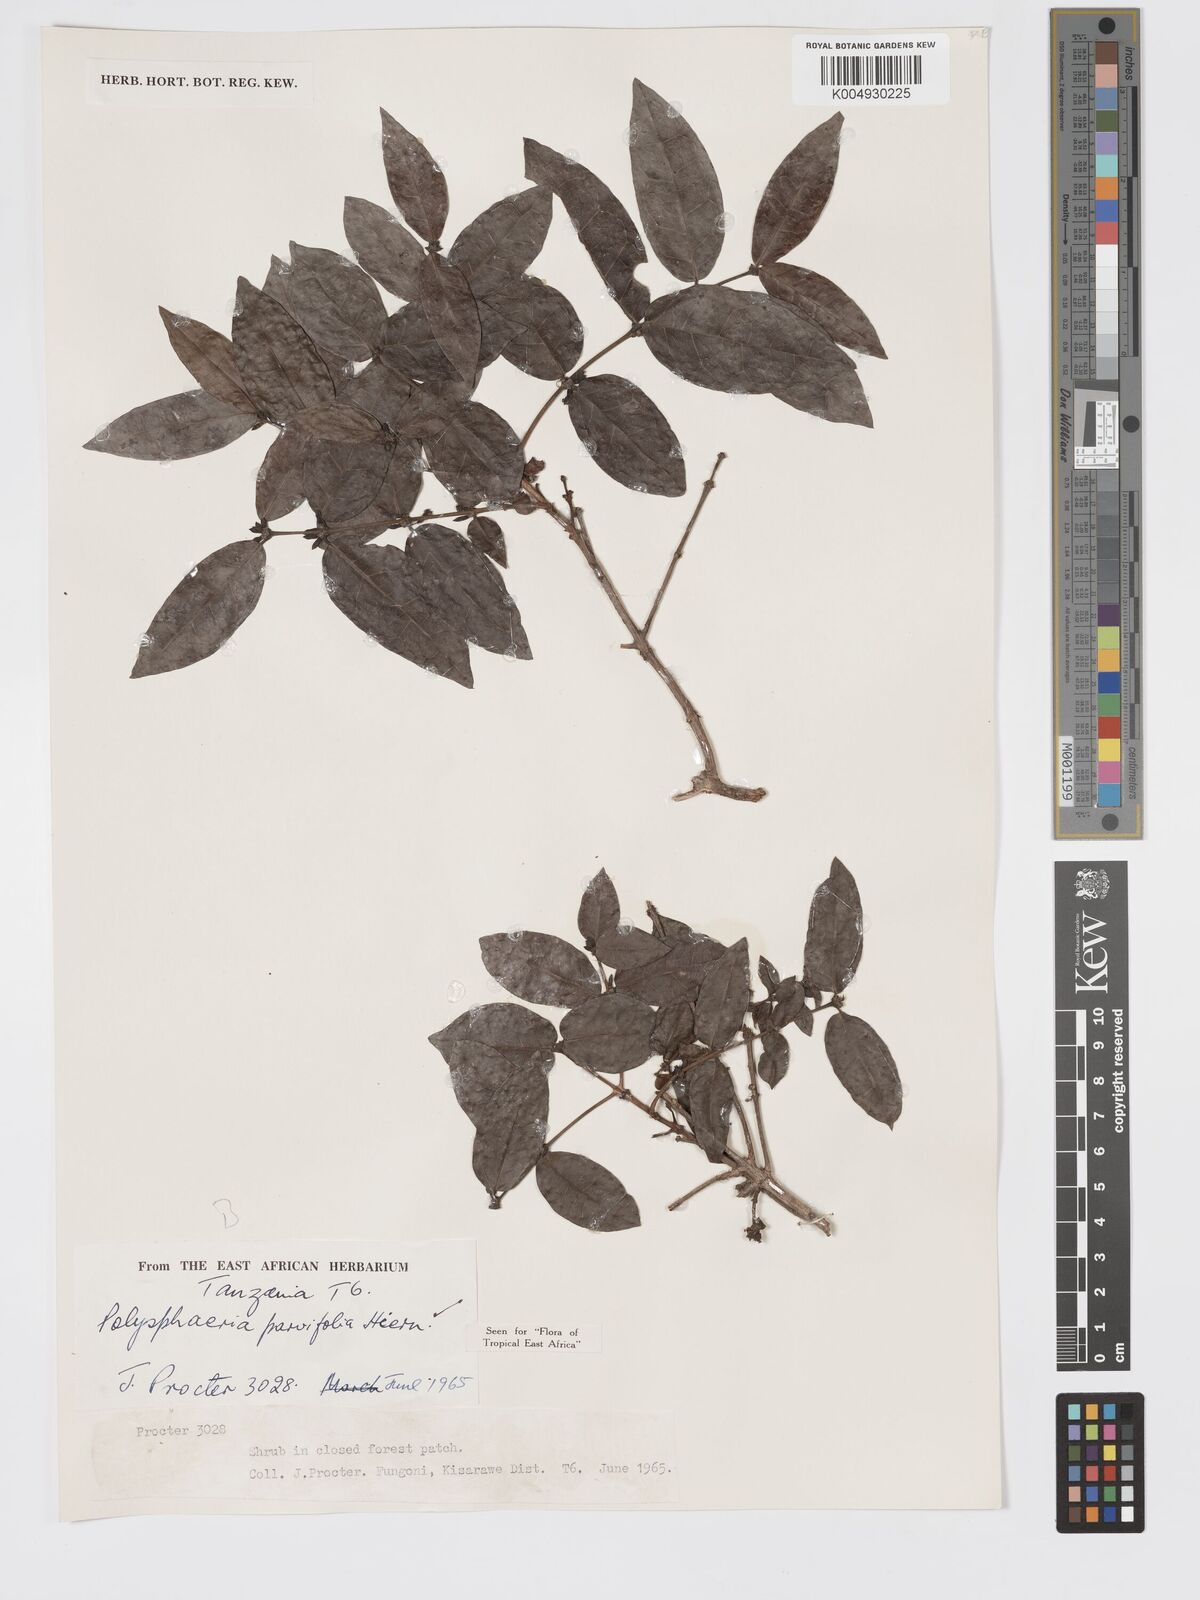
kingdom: Plantae
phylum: Tracheophyta
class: Magnoliopsida
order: Gentianales
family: Rubiaceae
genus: Polysphaeria
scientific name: Polysphaeria parvifolia
